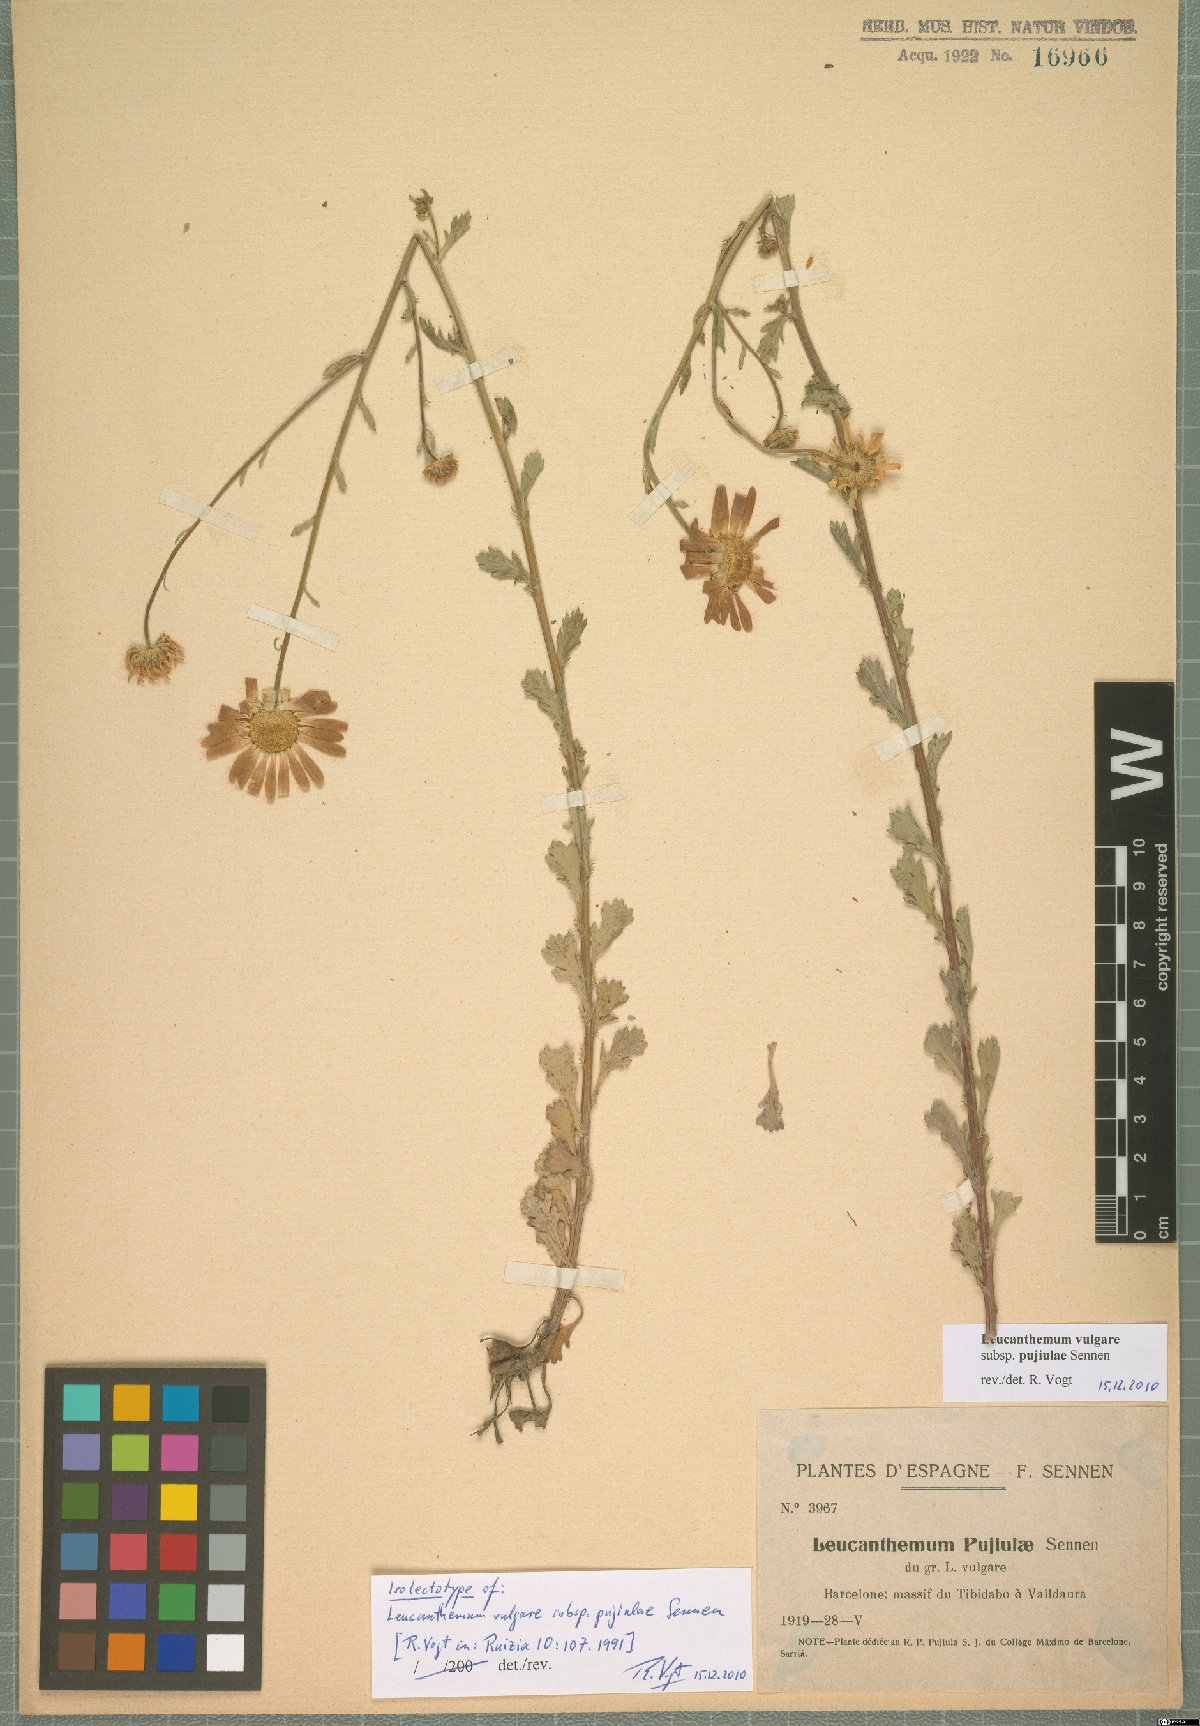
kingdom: Plantae
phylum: Tracheophyta
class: Magnoliopsida
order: Asterales
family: Asteraceae
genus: Leucanthemum
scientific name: Leucanthemum ageratifolium
